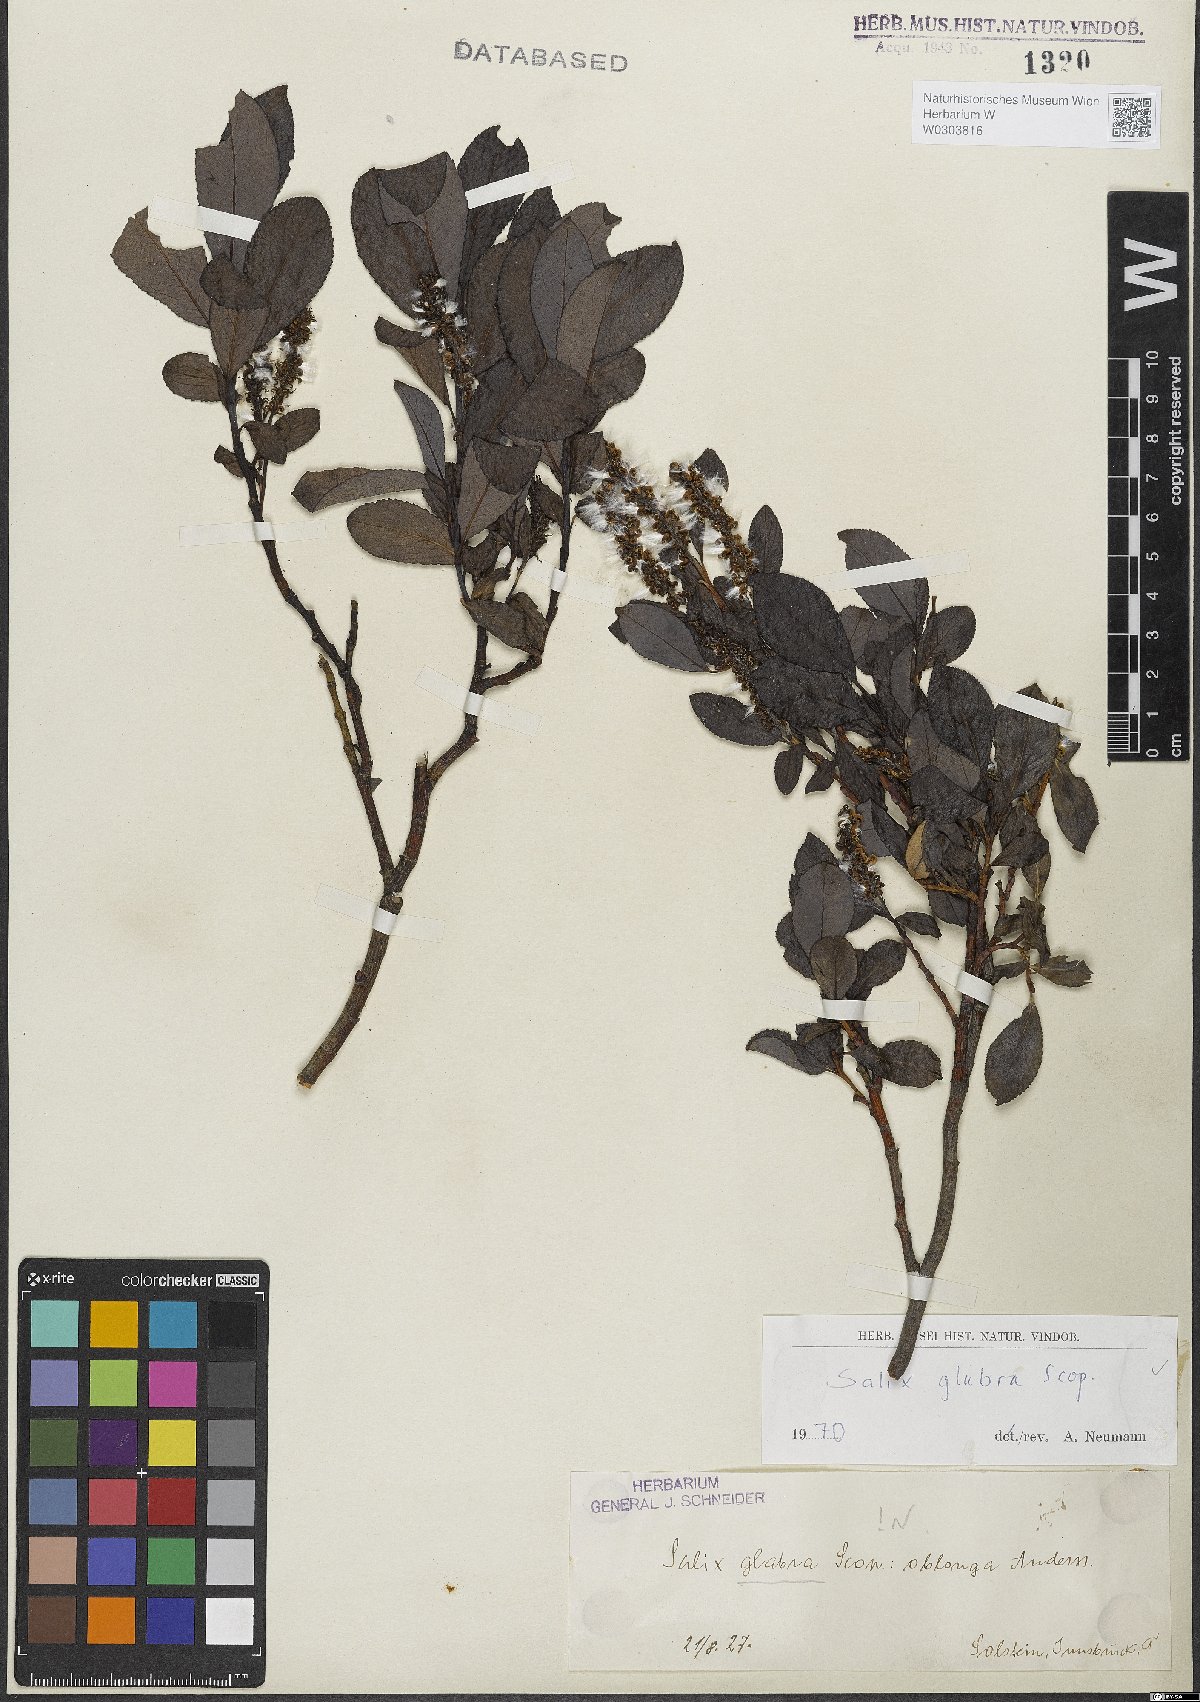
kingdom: Plantae
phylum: Tracheophyta
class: Magnoliopsida
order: Malpighiales
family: Salicaceae
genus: Salix
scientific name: Salix glabra
